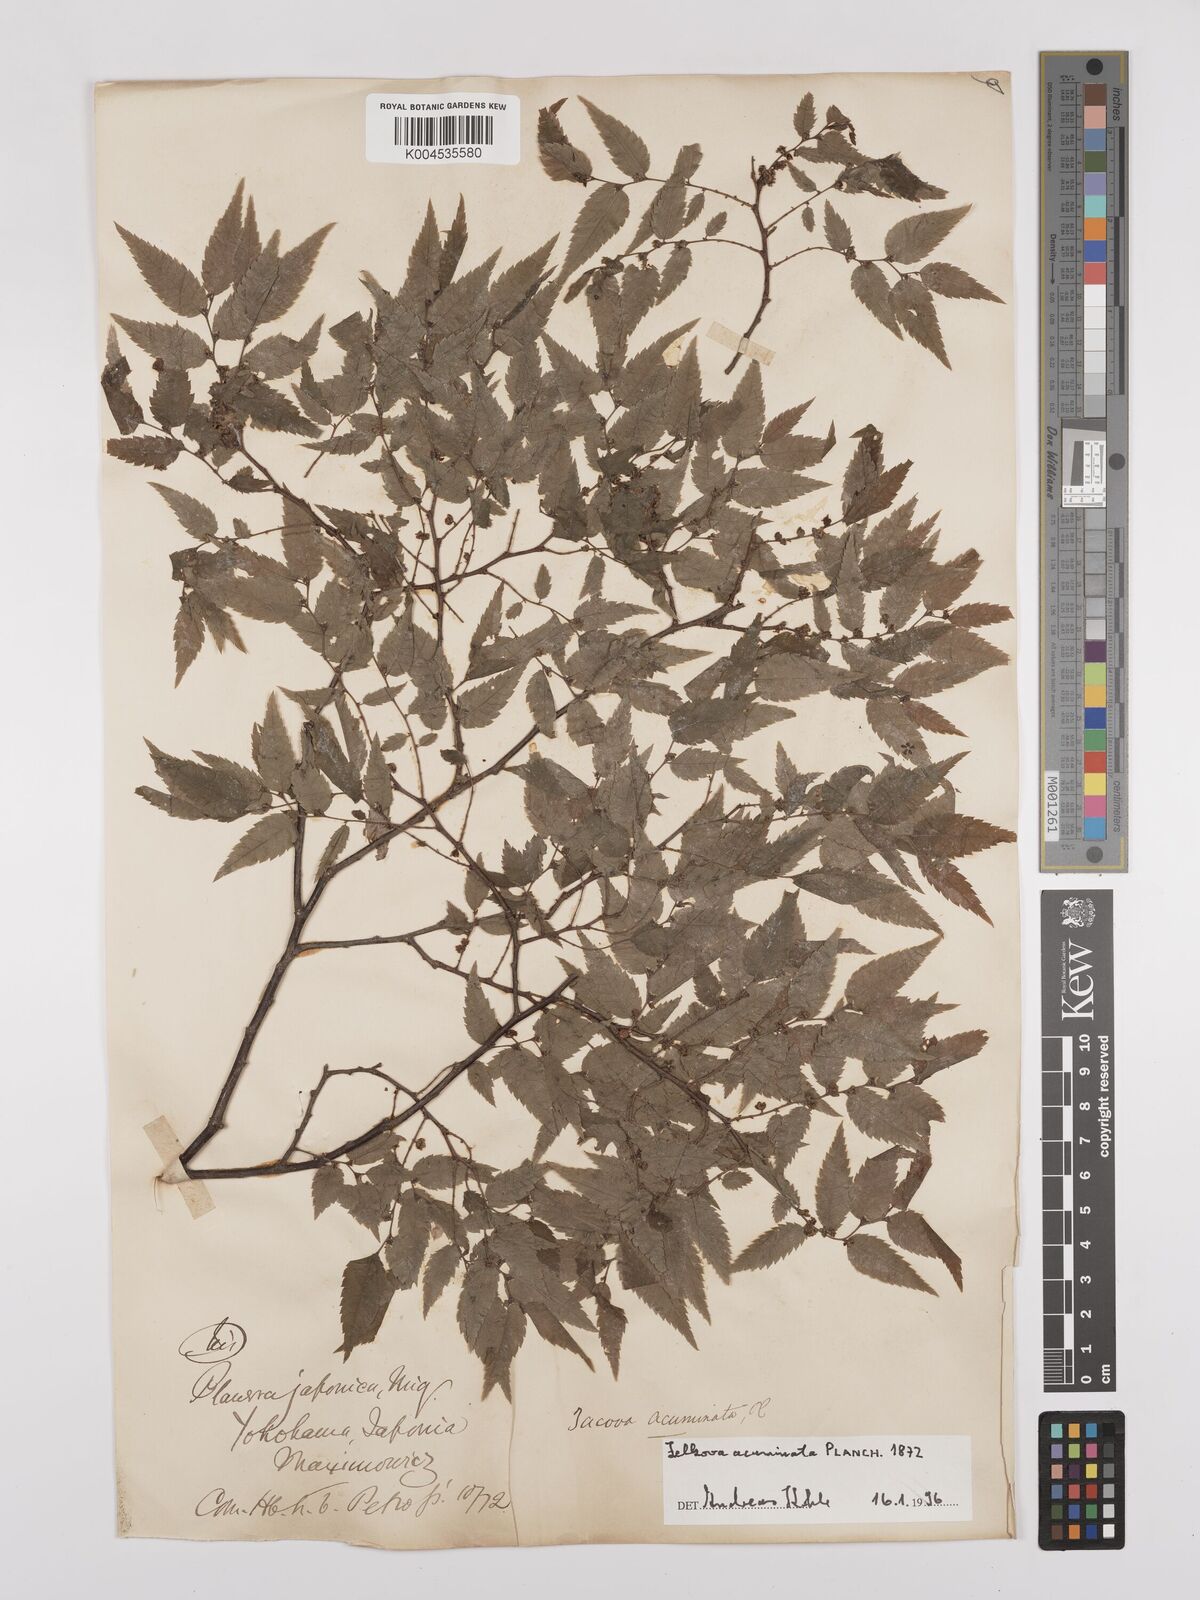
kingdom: Plantae
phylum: Tracheophyta
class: Magnoliopsida
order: Rosales
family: Ulmaceae
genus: Zelkova
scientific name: Zelkova serrata
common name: Japanese zelkova
